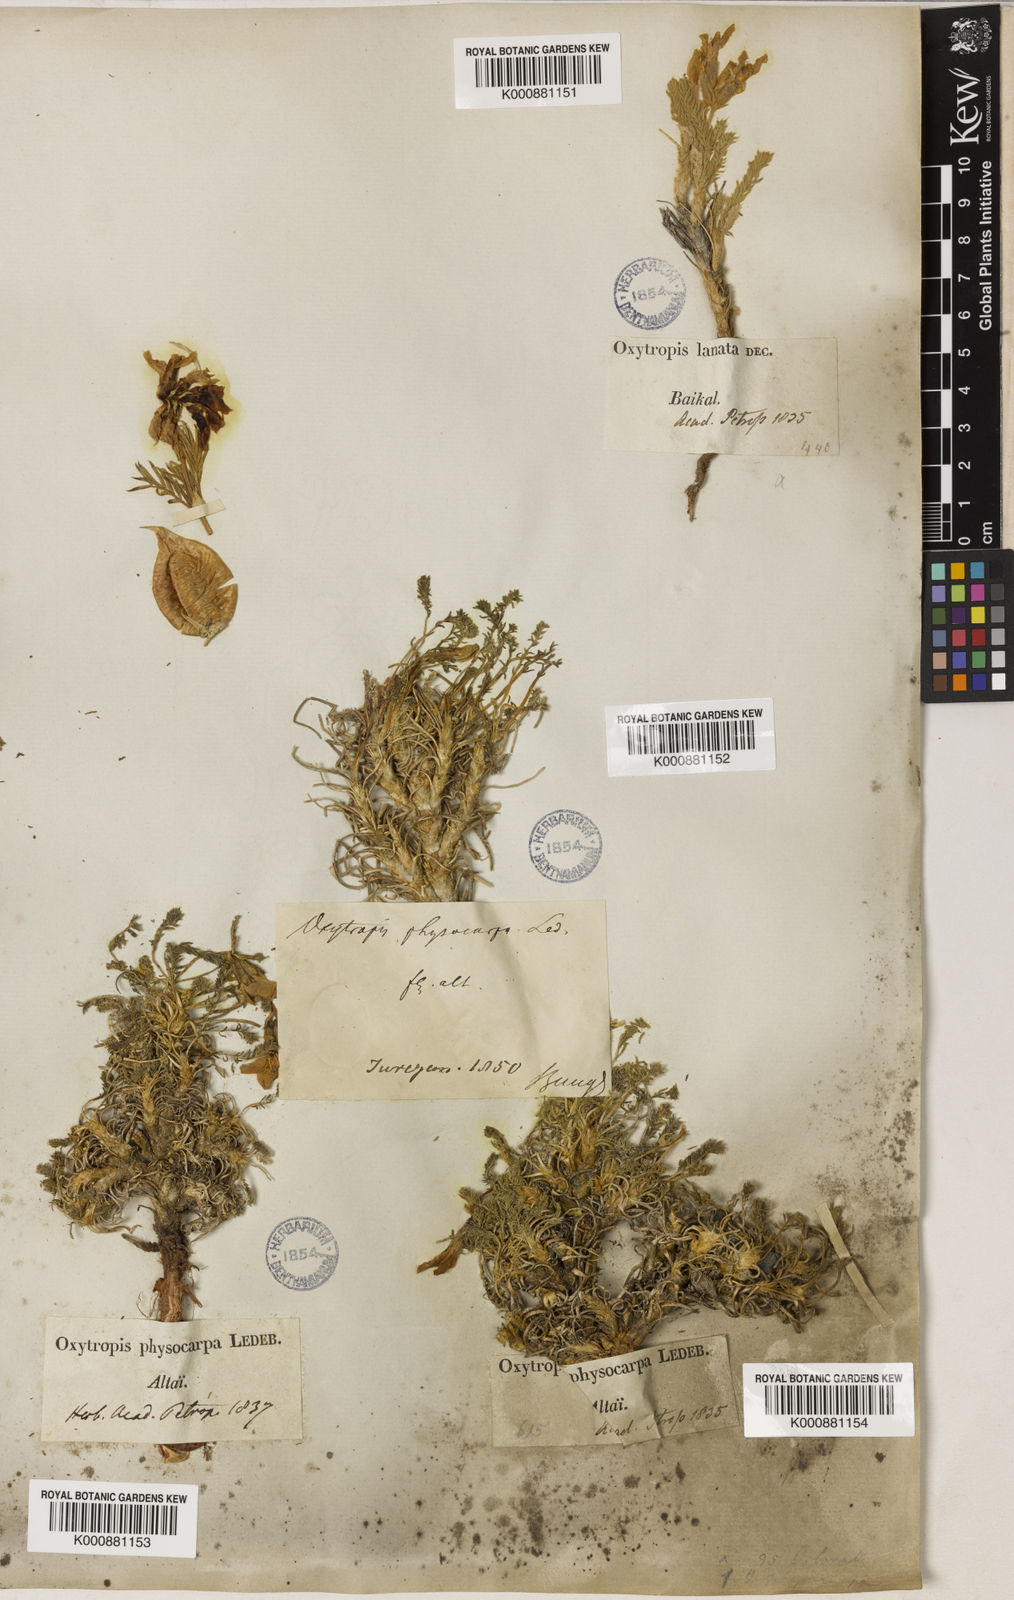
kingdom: Plantae
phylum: Tracheophyta
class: Magnoliopsida
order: Fabales
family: Fabaceae
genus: Oxytropis
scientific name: Oxytropis physocarpa
